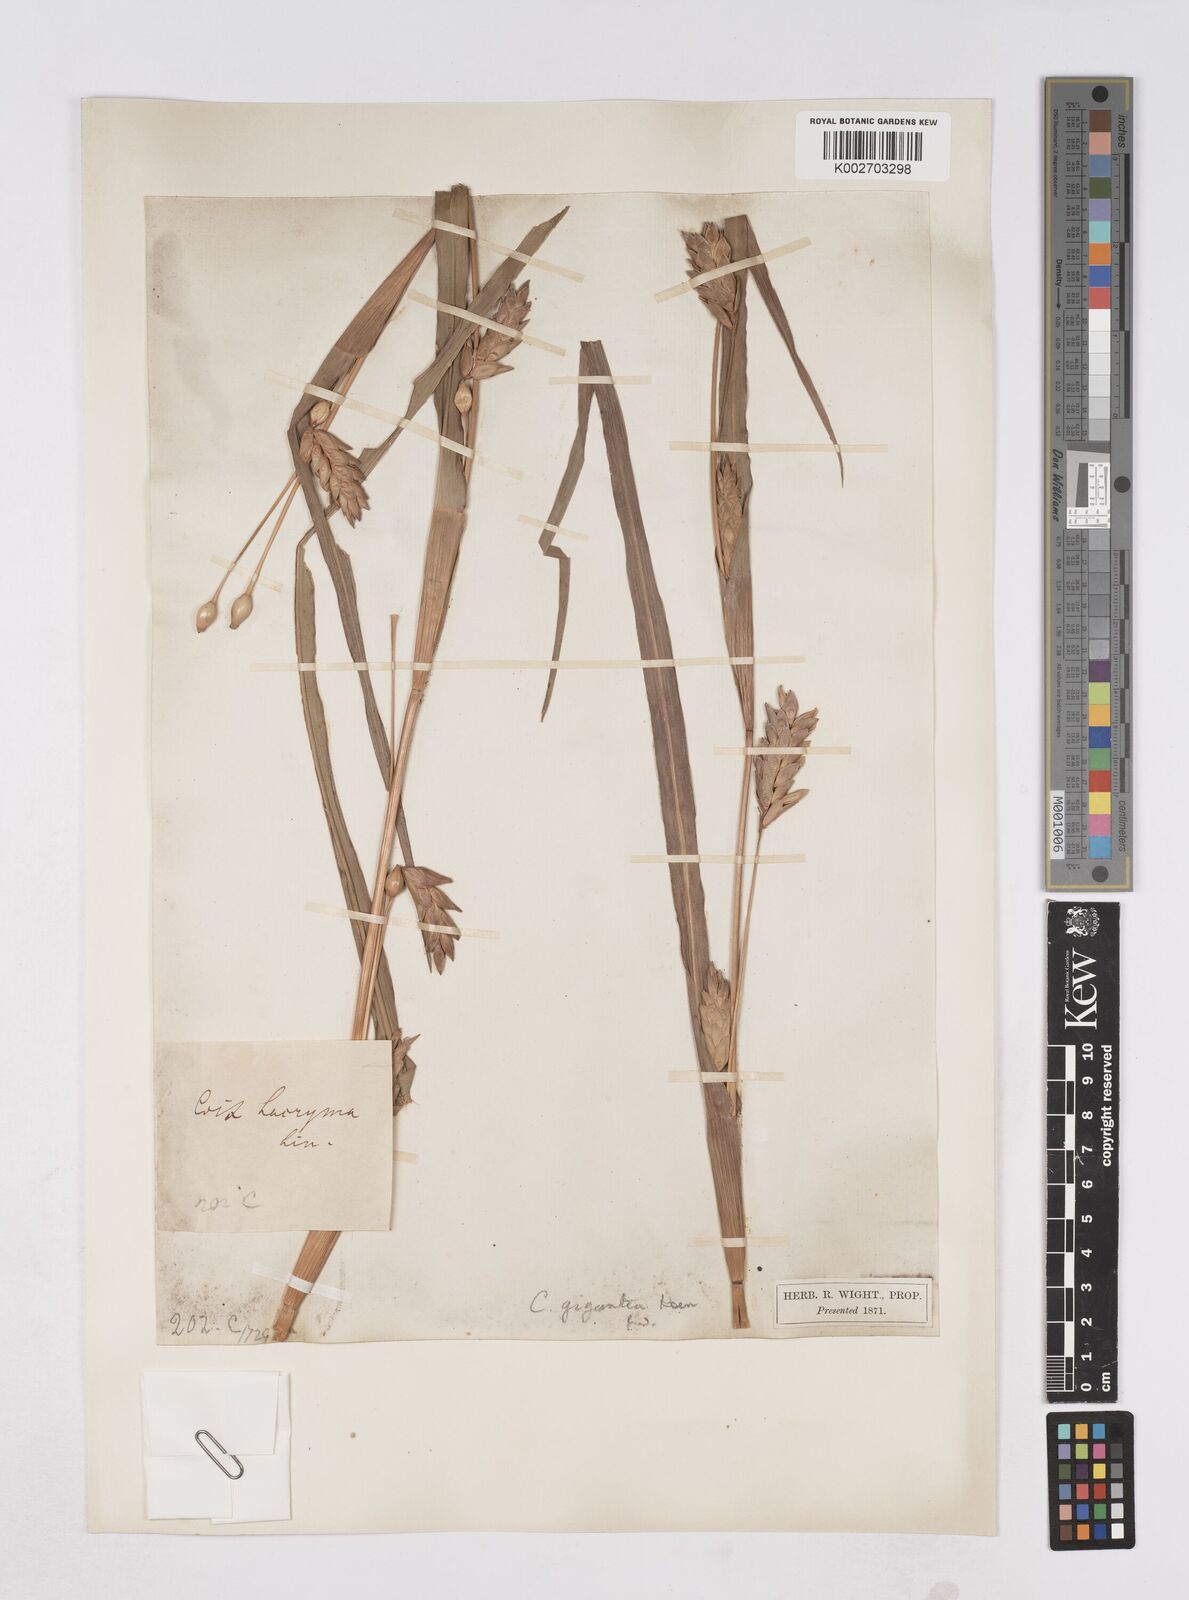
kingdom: Plantae
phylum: Tracheophyta
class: Liliopsida
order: Poales
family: Poaceae
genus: Coix
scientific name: Coix aquatica
